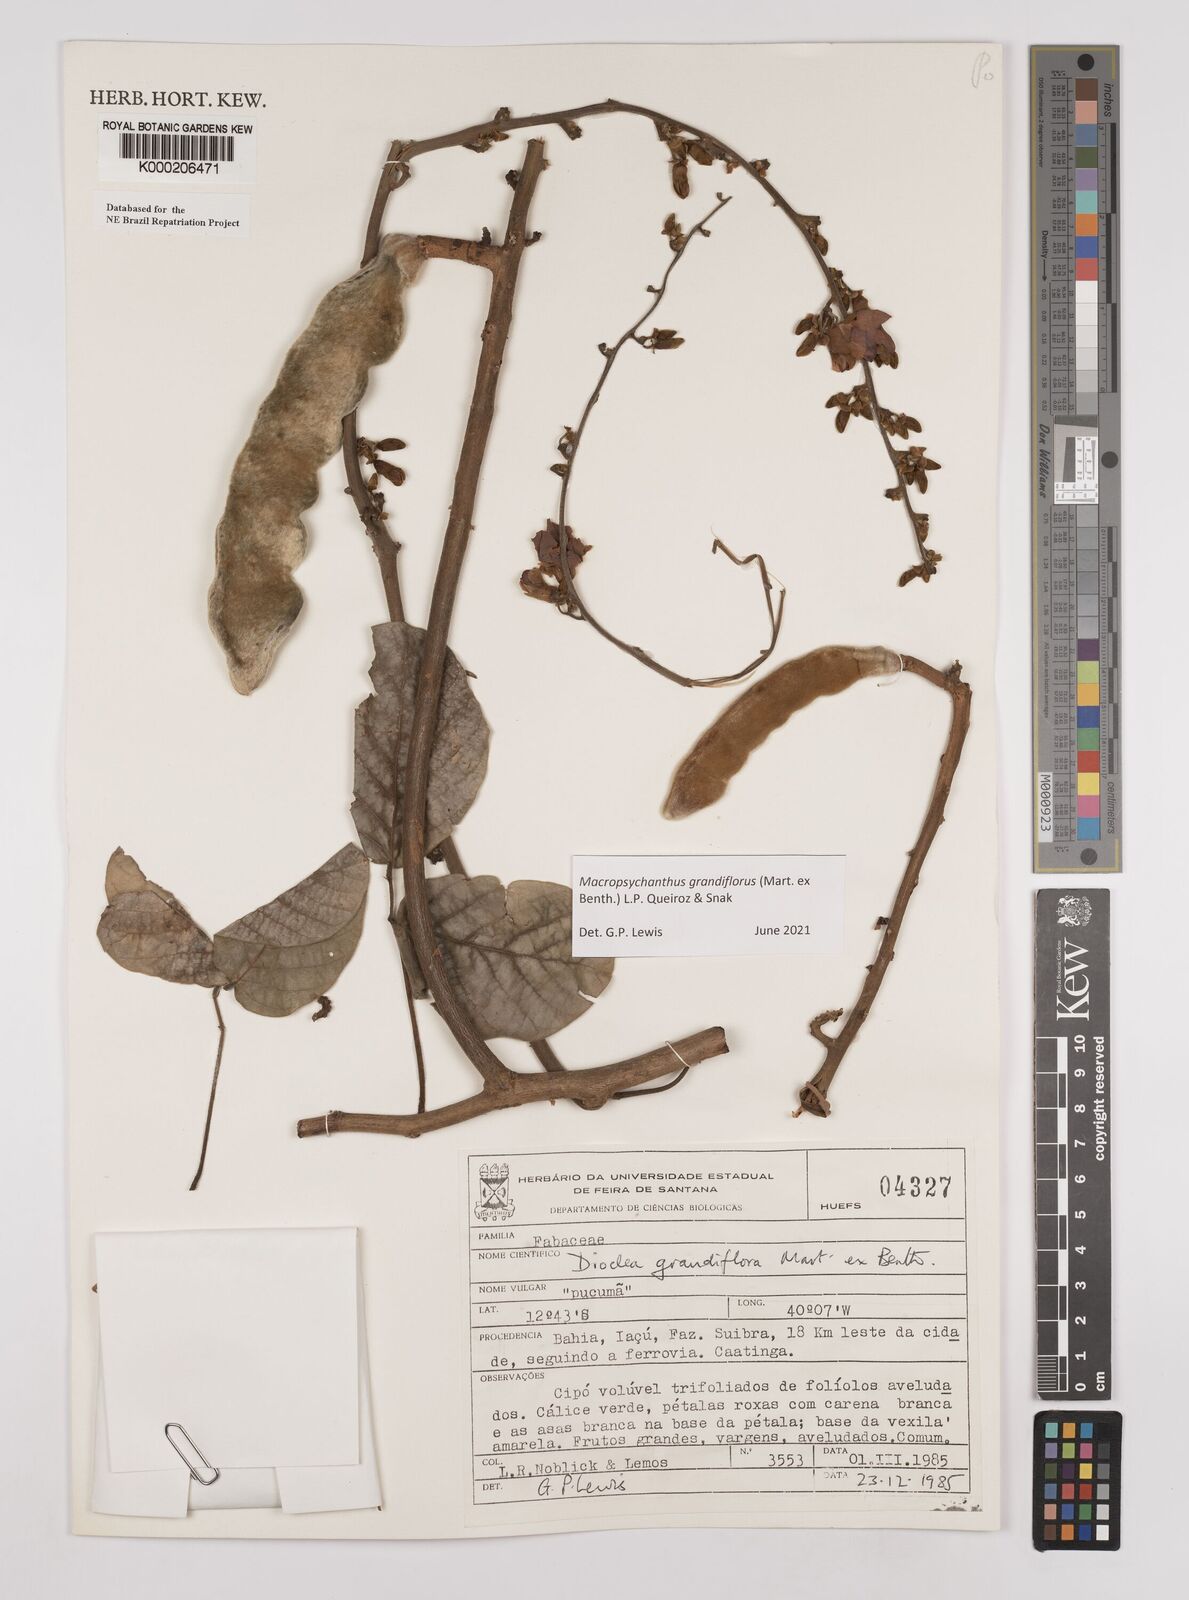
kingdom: Plantae
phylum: Tracheophyta
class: Magnoliopsida
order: Fabales
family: Fabaceae
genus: Macropsychanthus
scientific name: Macropsychanthus grandiflorus
